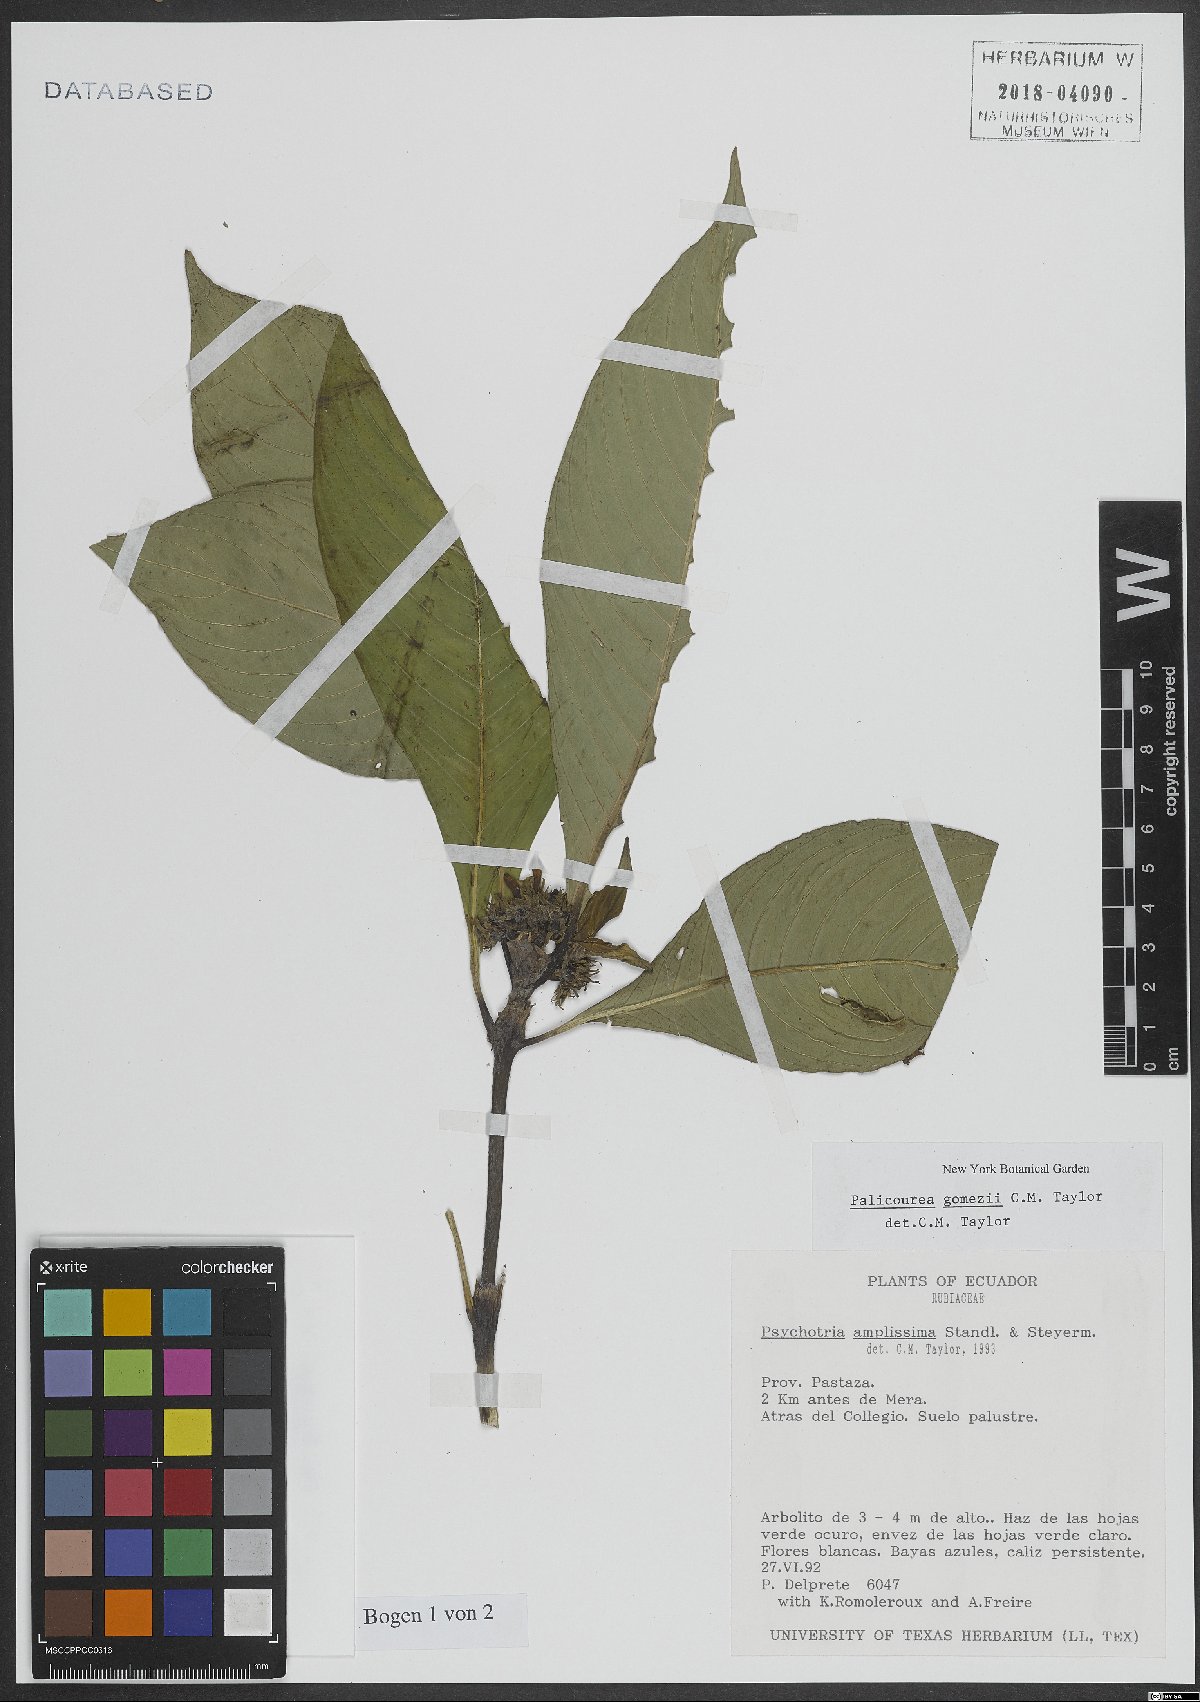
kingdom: Plantae
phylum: Tracheophyta
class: Magnoliopsida
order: Gentianales
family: Rubiaceae
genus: Psychotria
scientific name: Psychotria amplissima
